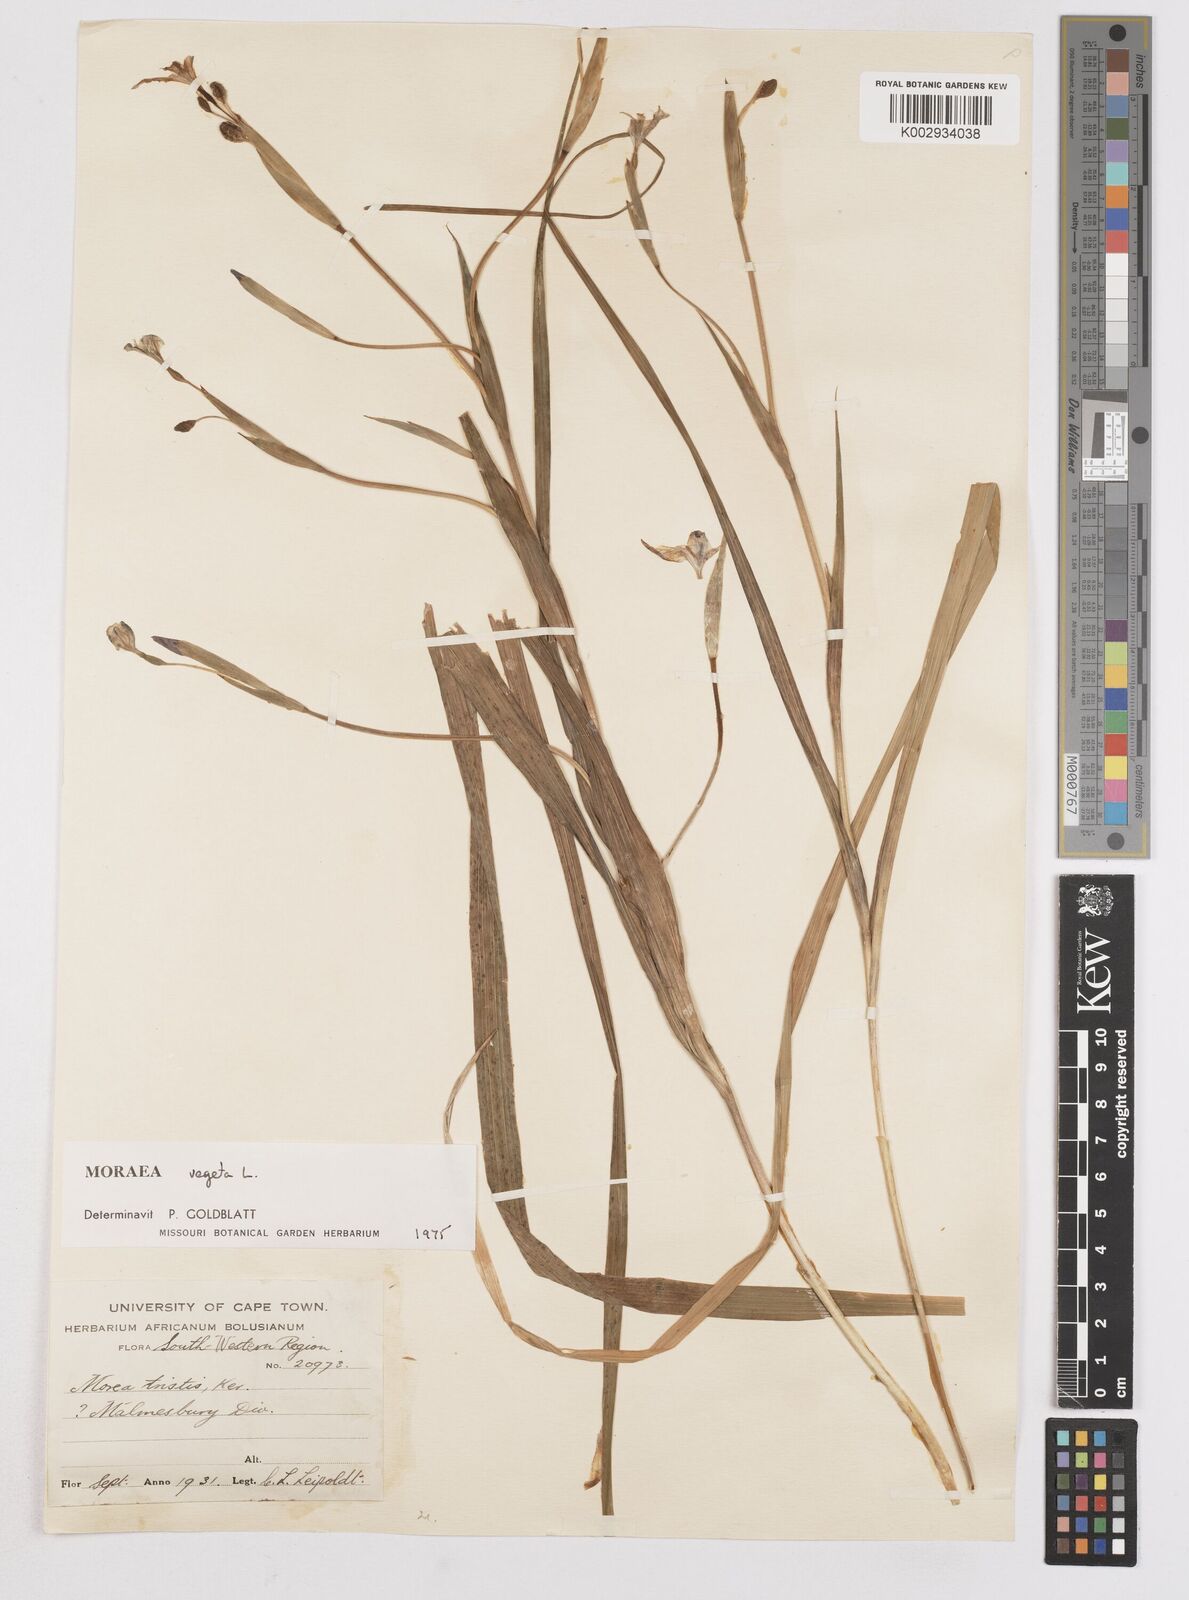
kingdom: Plantae
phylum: Tracheophyta
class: Liliopsida
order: Asparagales
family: Iridaceae
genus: Moraea
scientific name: Moraea vegeta
